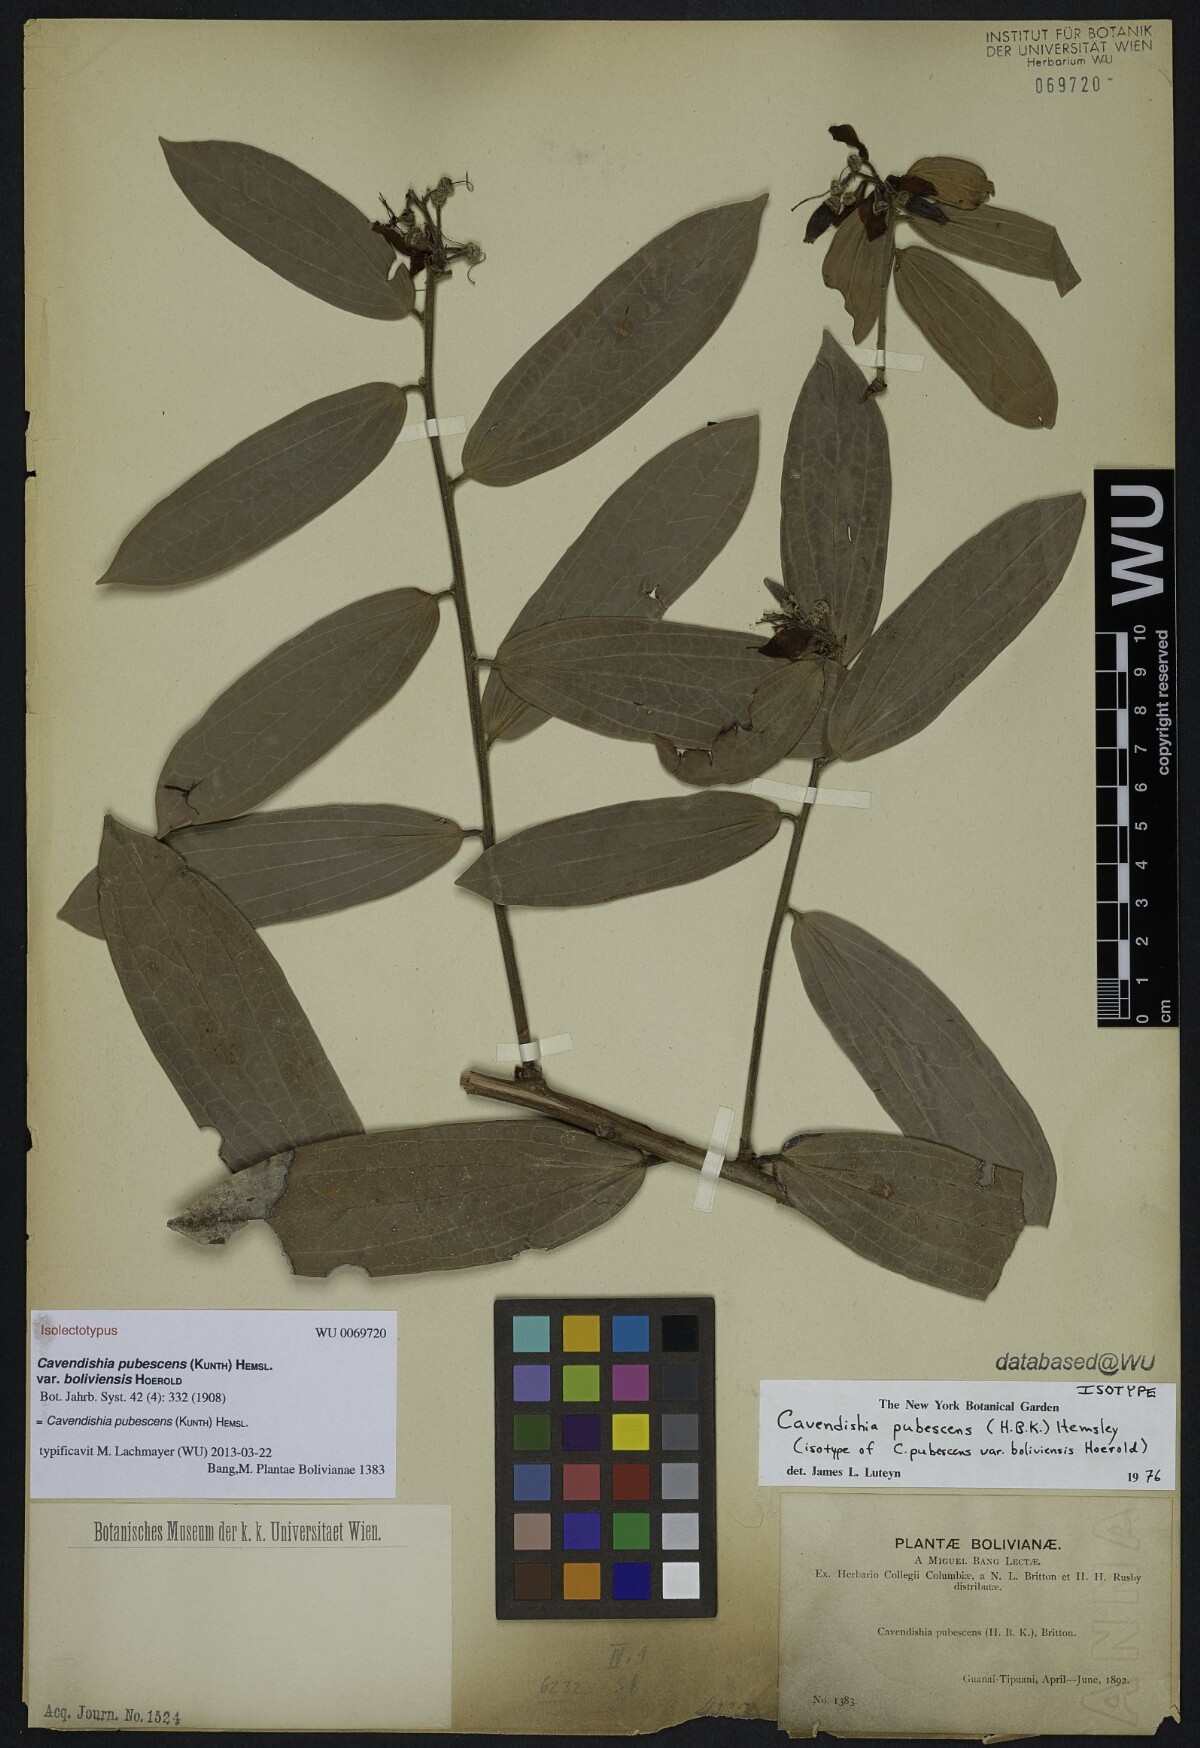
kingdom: Plantae
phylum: Tracheophyta
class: Magnoliopsida
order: Ericales
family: Ericaceae
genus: Cavendishia
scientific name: Cavendishia pubescens
